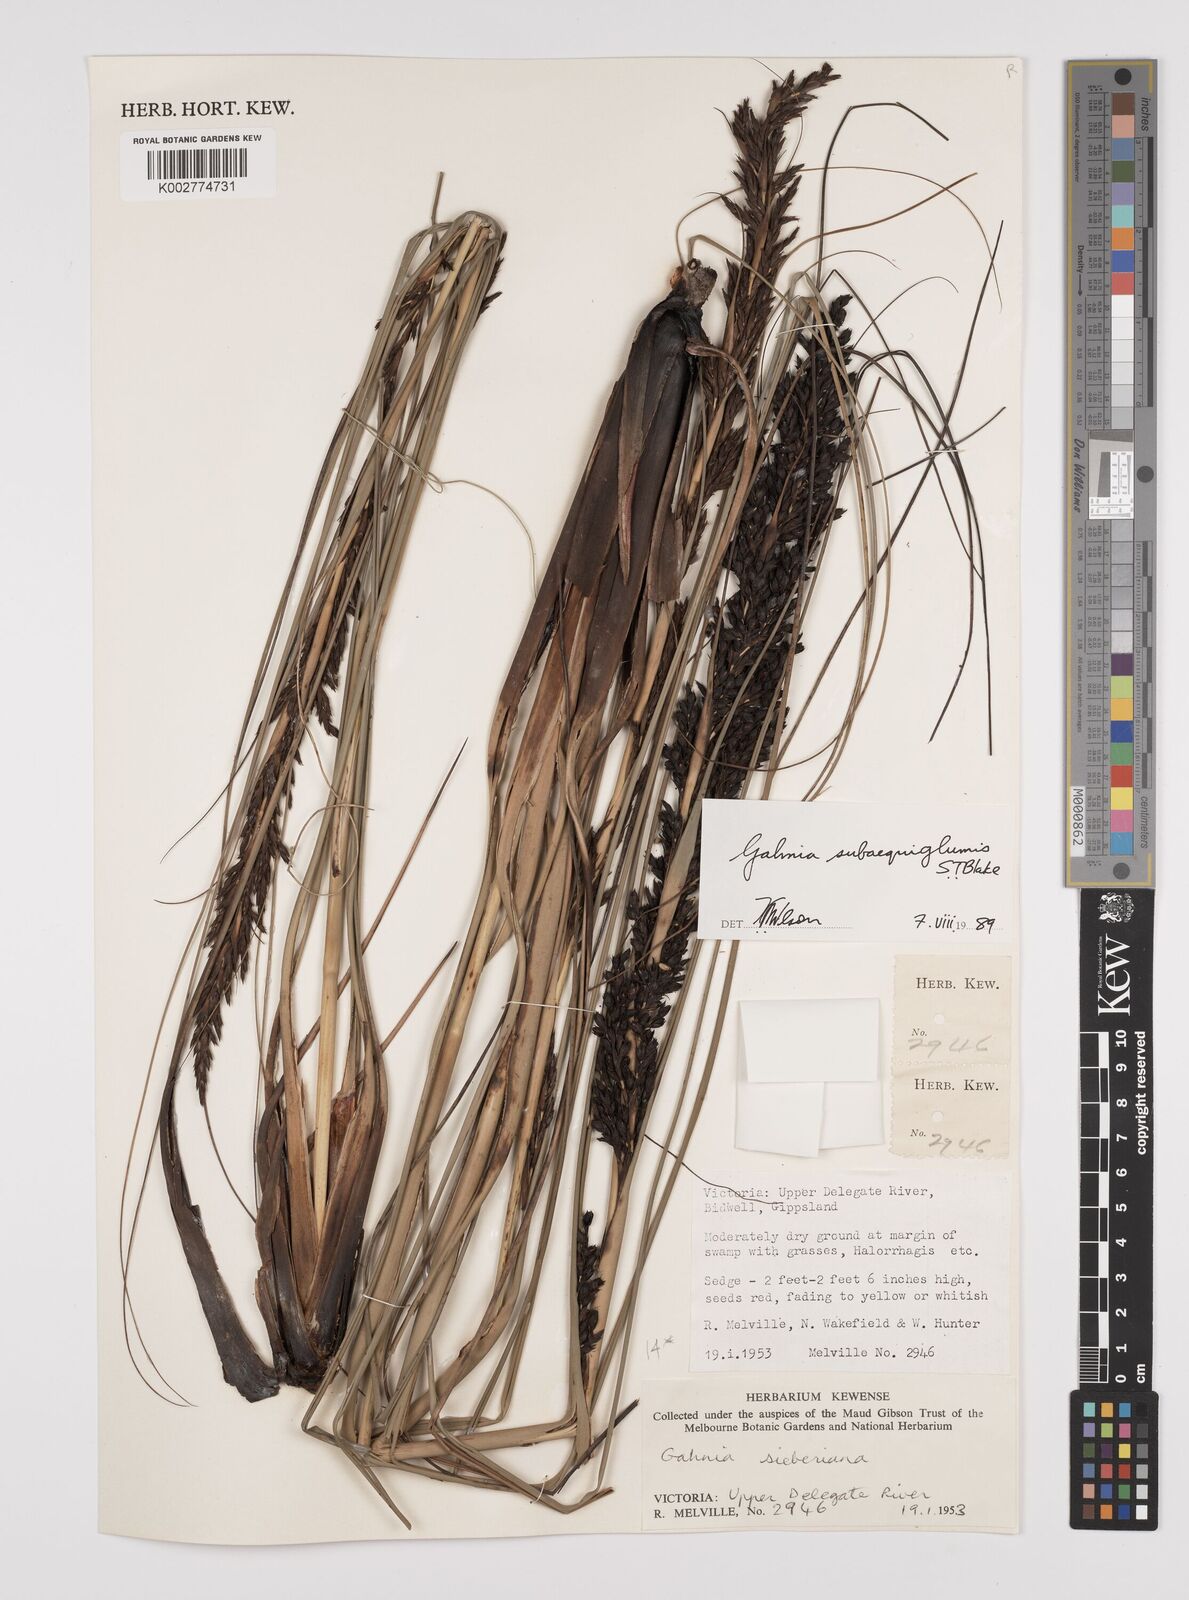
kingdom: Plantae
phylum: Tracheophyta
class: Liliopsida
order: Poales
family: Cyperaceae
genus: Gahnia
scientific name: Gahnia subaequiglumis
